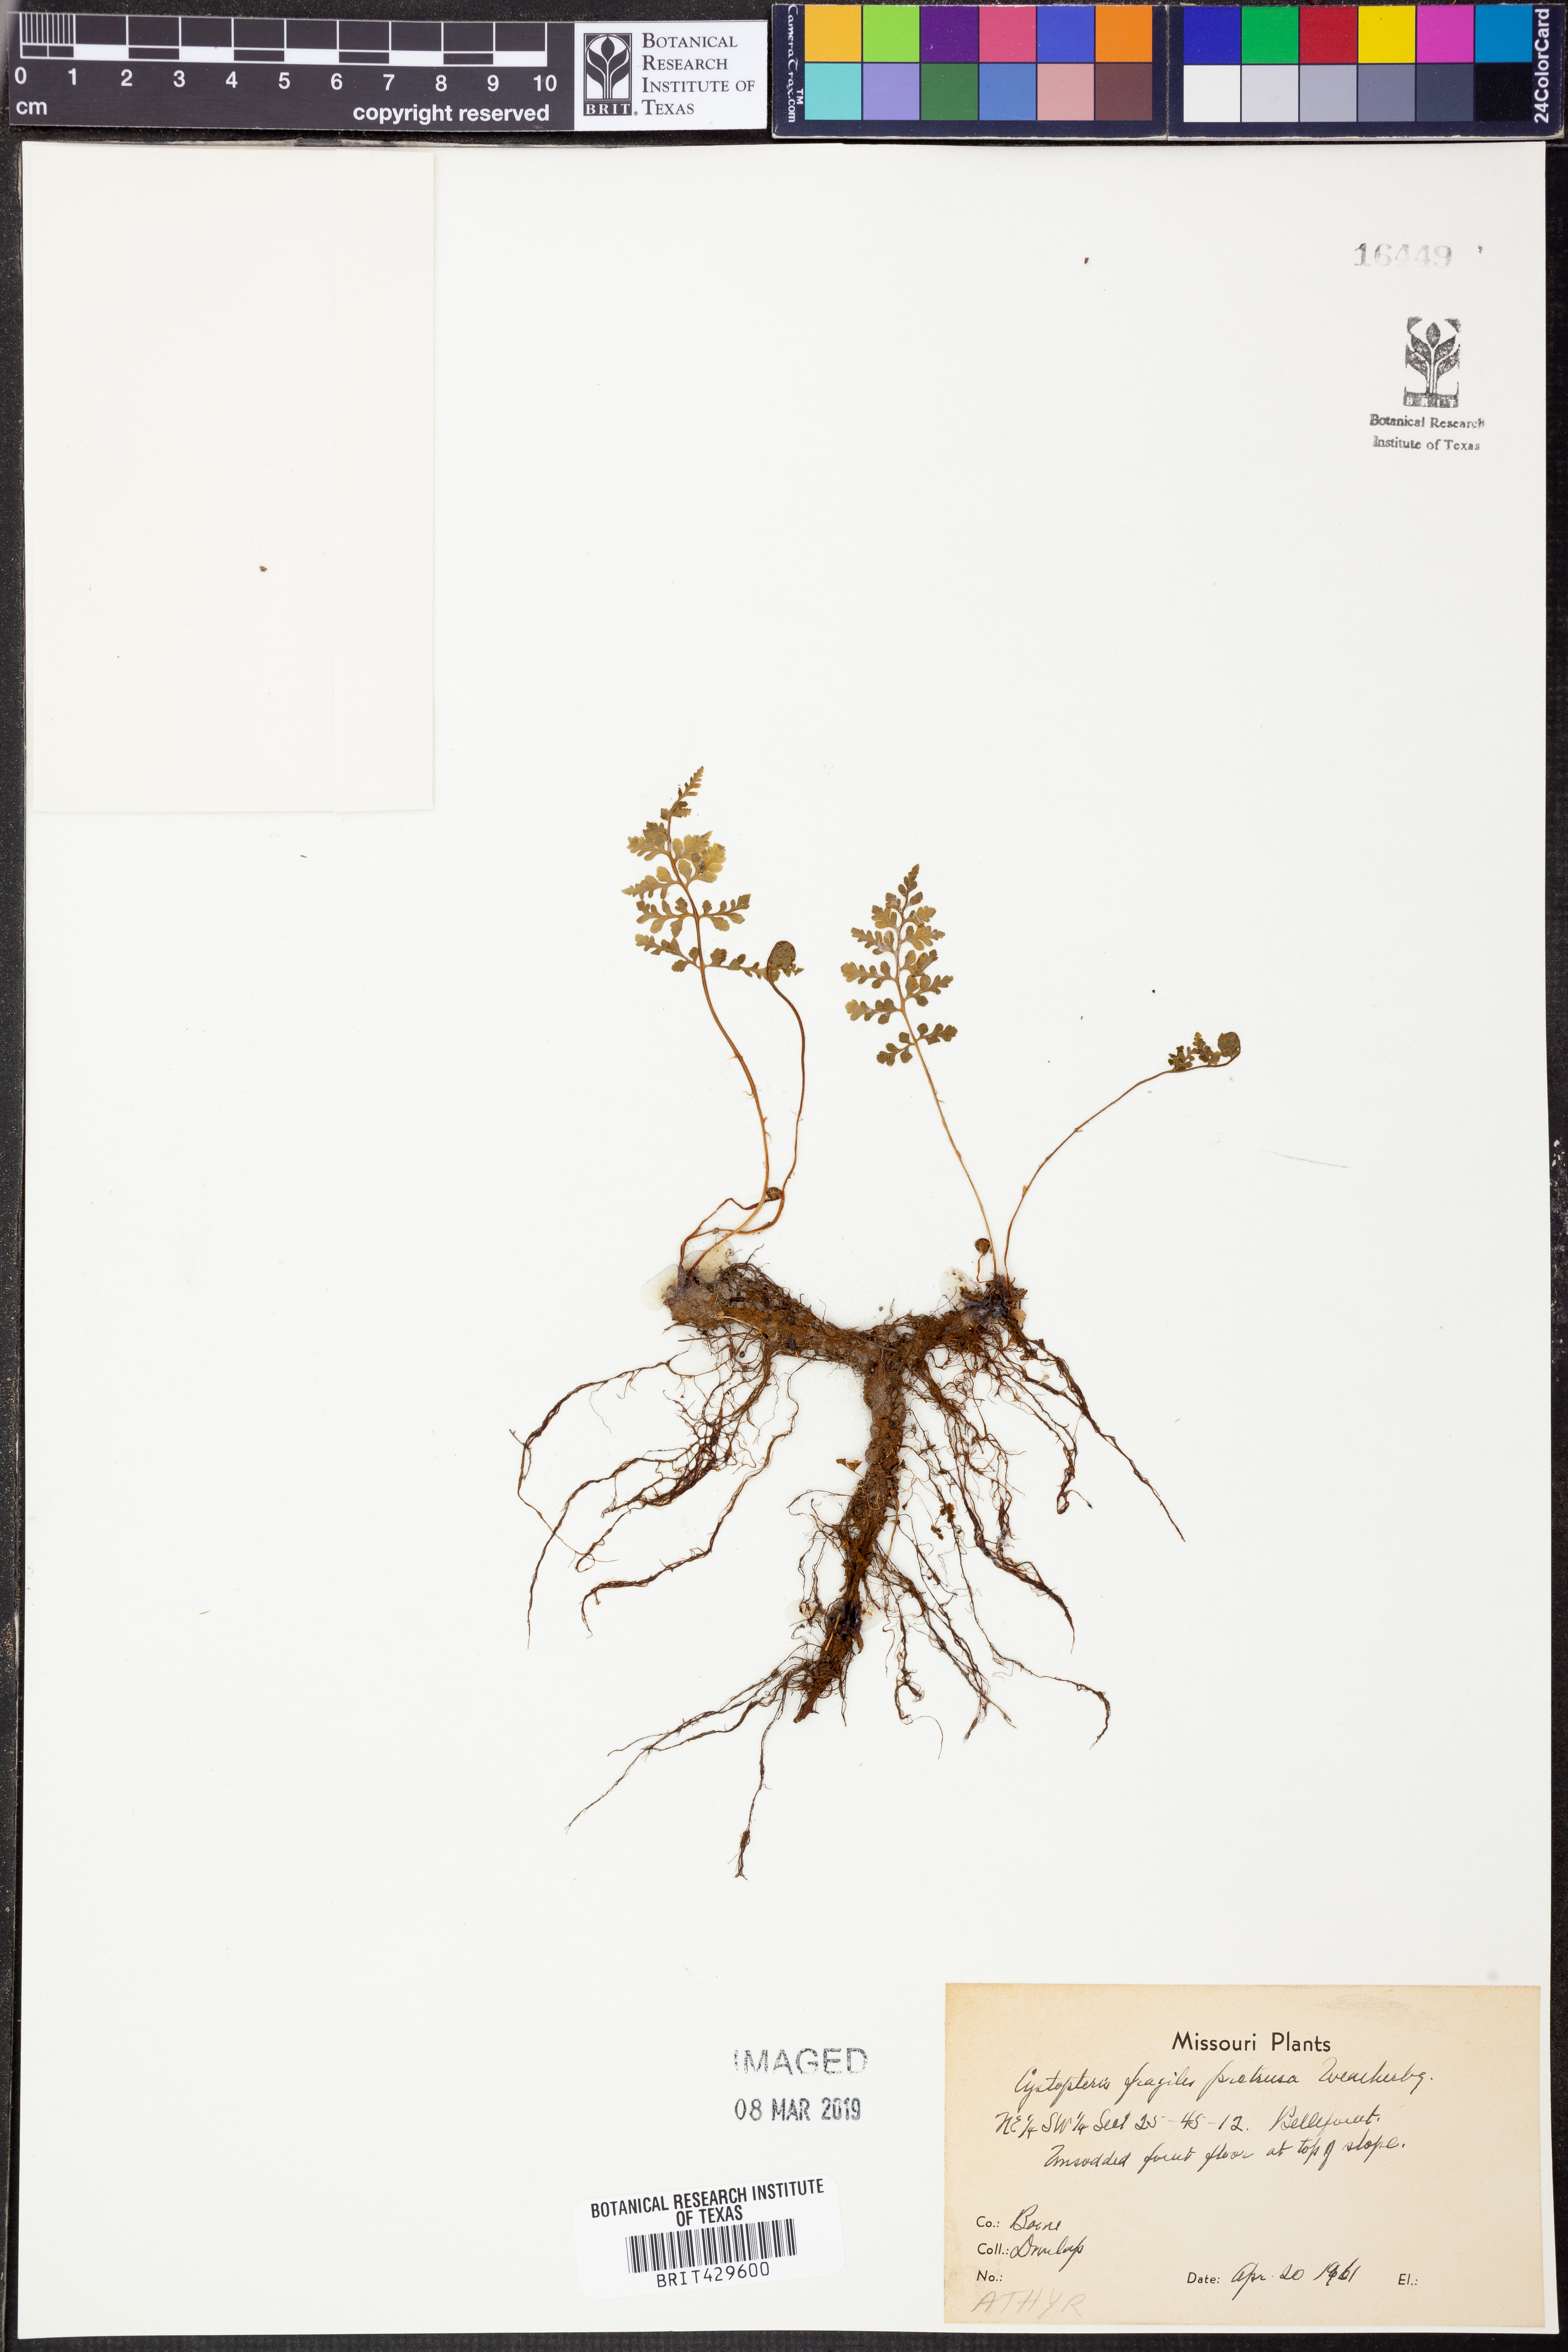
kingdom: Plantae
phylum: Tracheophyta
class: Polypodiopsida
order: Polypodiales
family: Cystopteridaceae
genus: Cystopteris
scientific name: Cystopteris protrusa
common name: Lowland brittle fern
